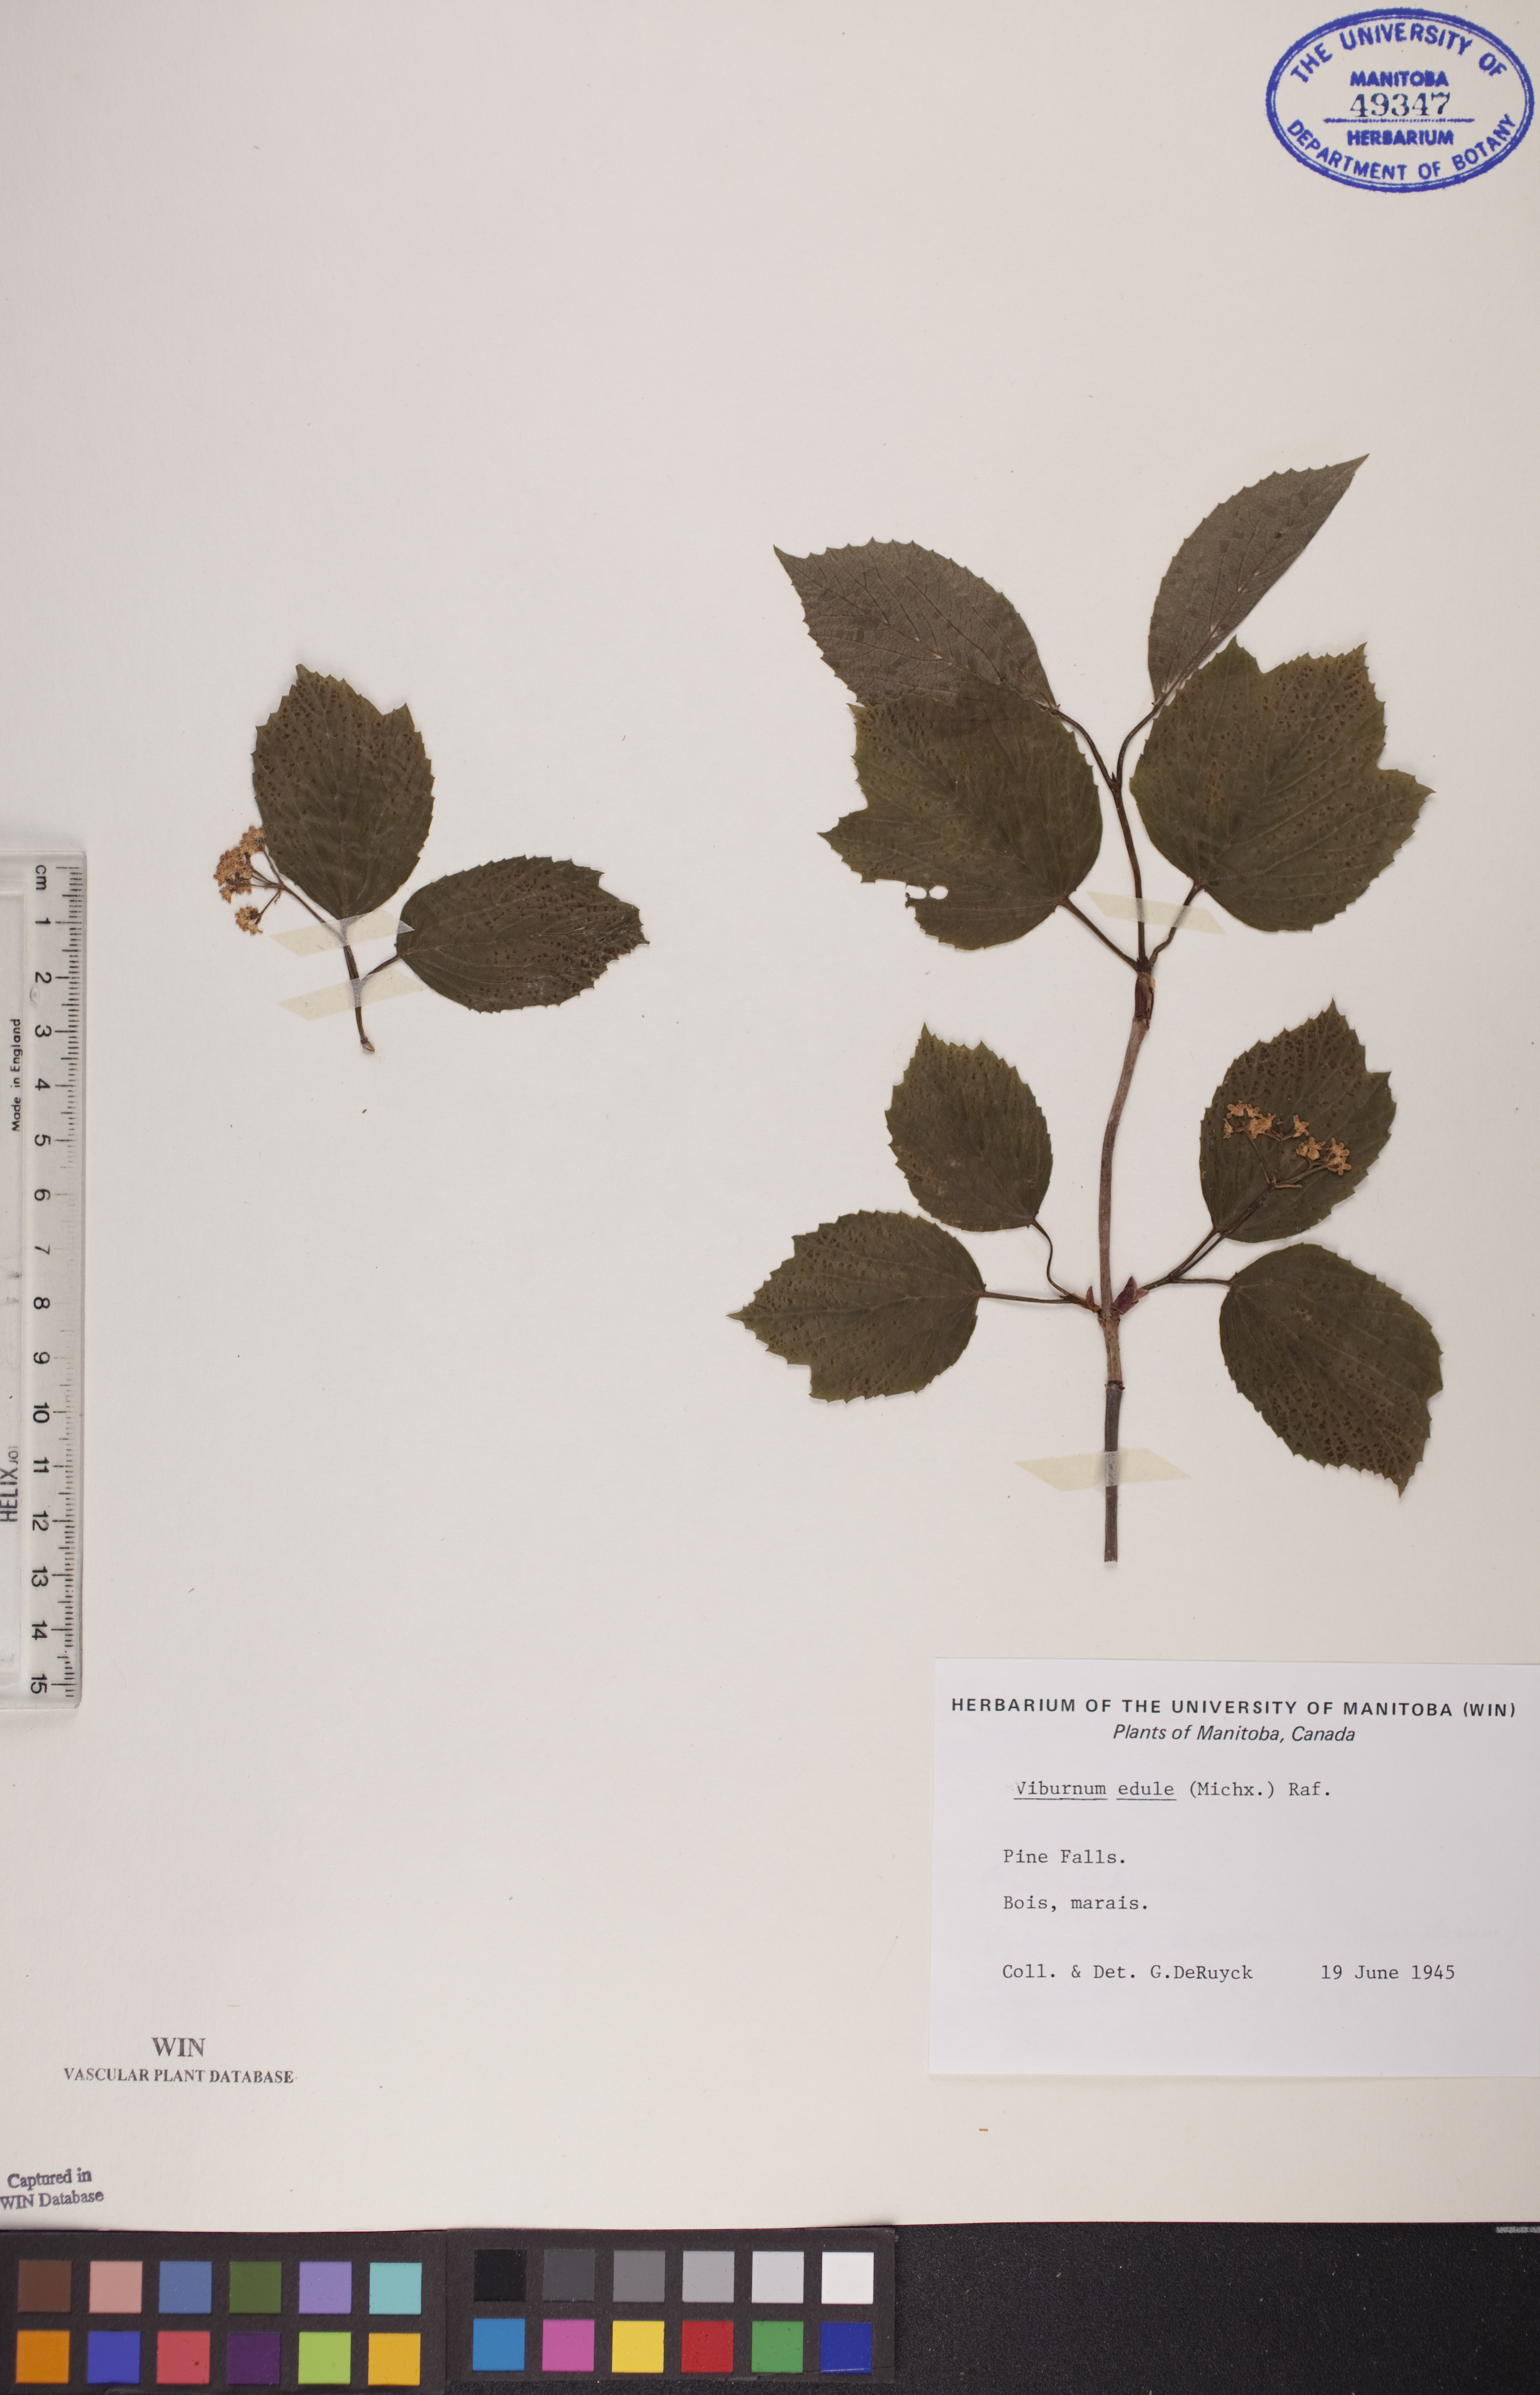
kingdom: Plantae
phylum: Tracheophyta
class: Magnoliopsida
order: Dipsacales
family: Viburnaceae
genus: Viburnum
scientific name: Viburnum edule
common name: Mooseberry
